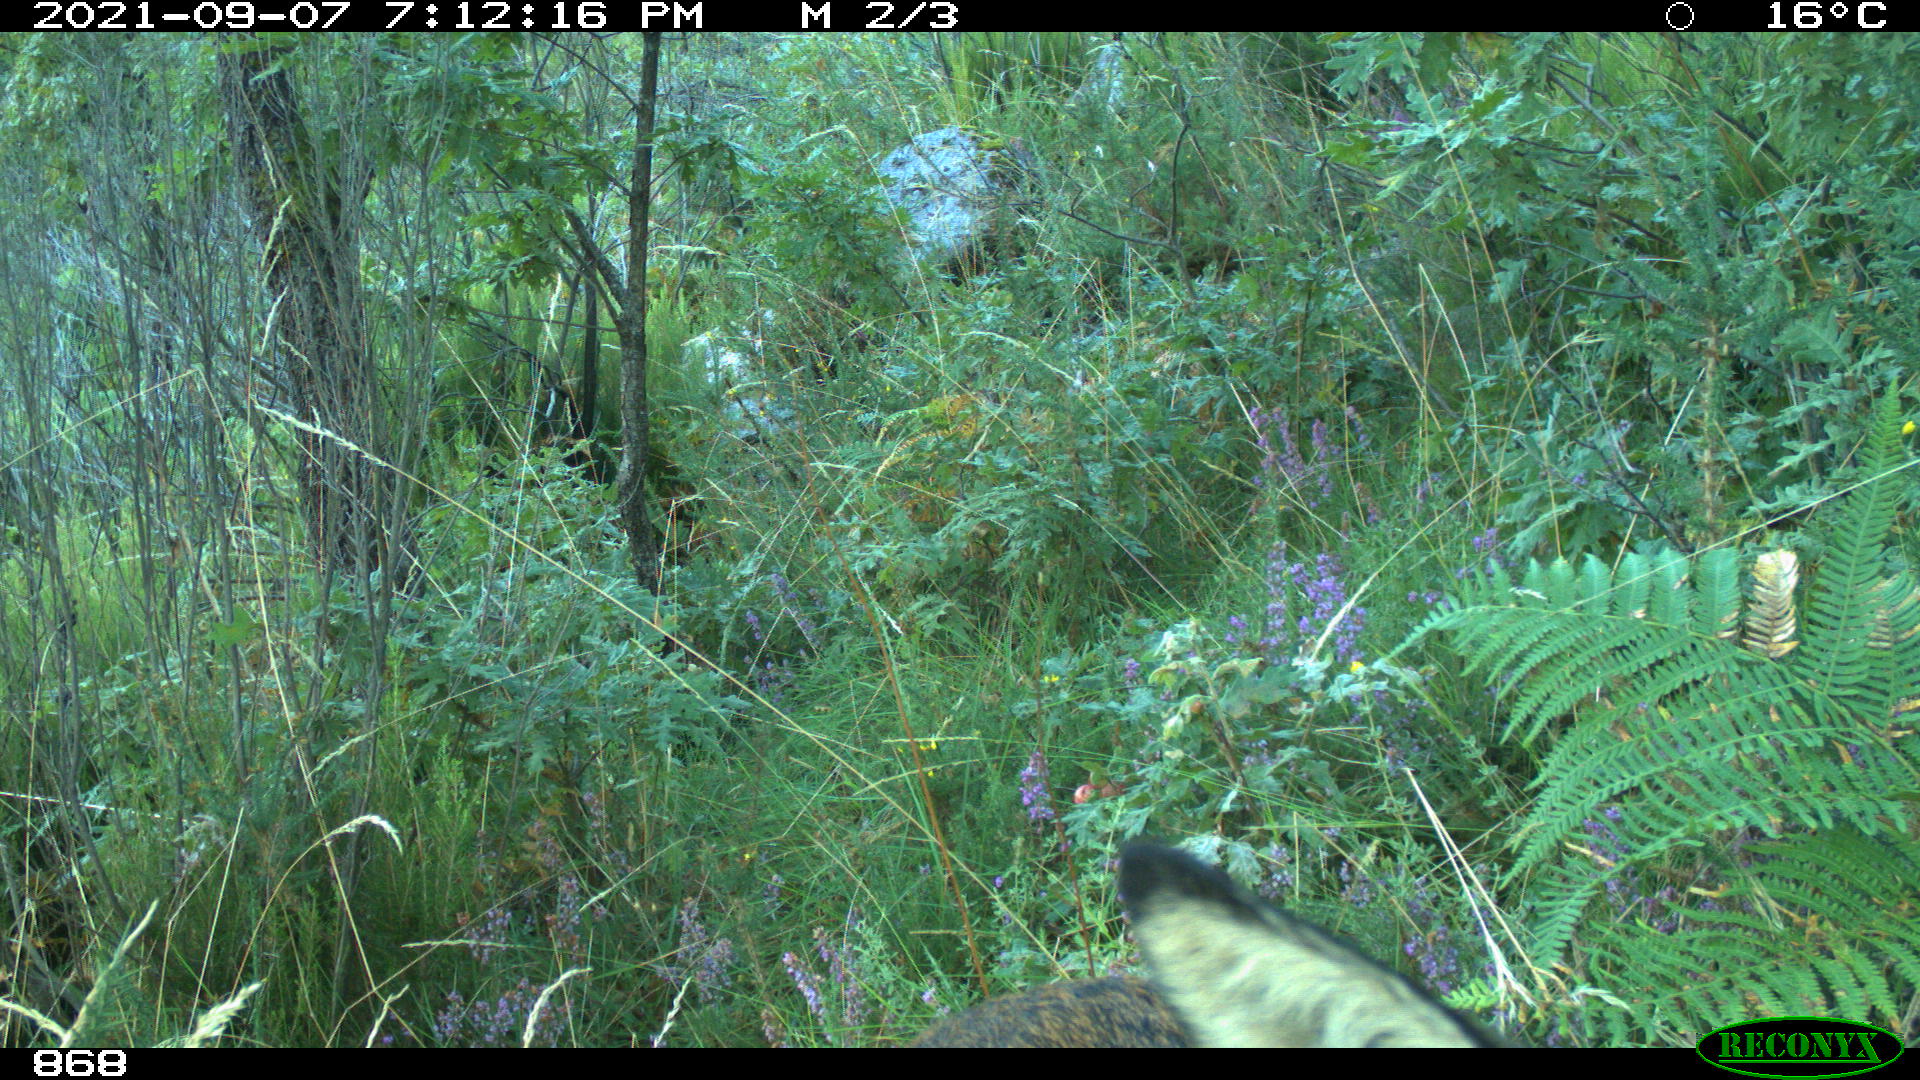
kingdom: Animalia
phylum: Chordata
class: Mammalia
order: Artiodactyla
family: Cervidae
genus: Capreolus
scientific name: Capreolus capreolus
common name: Western roe deer
